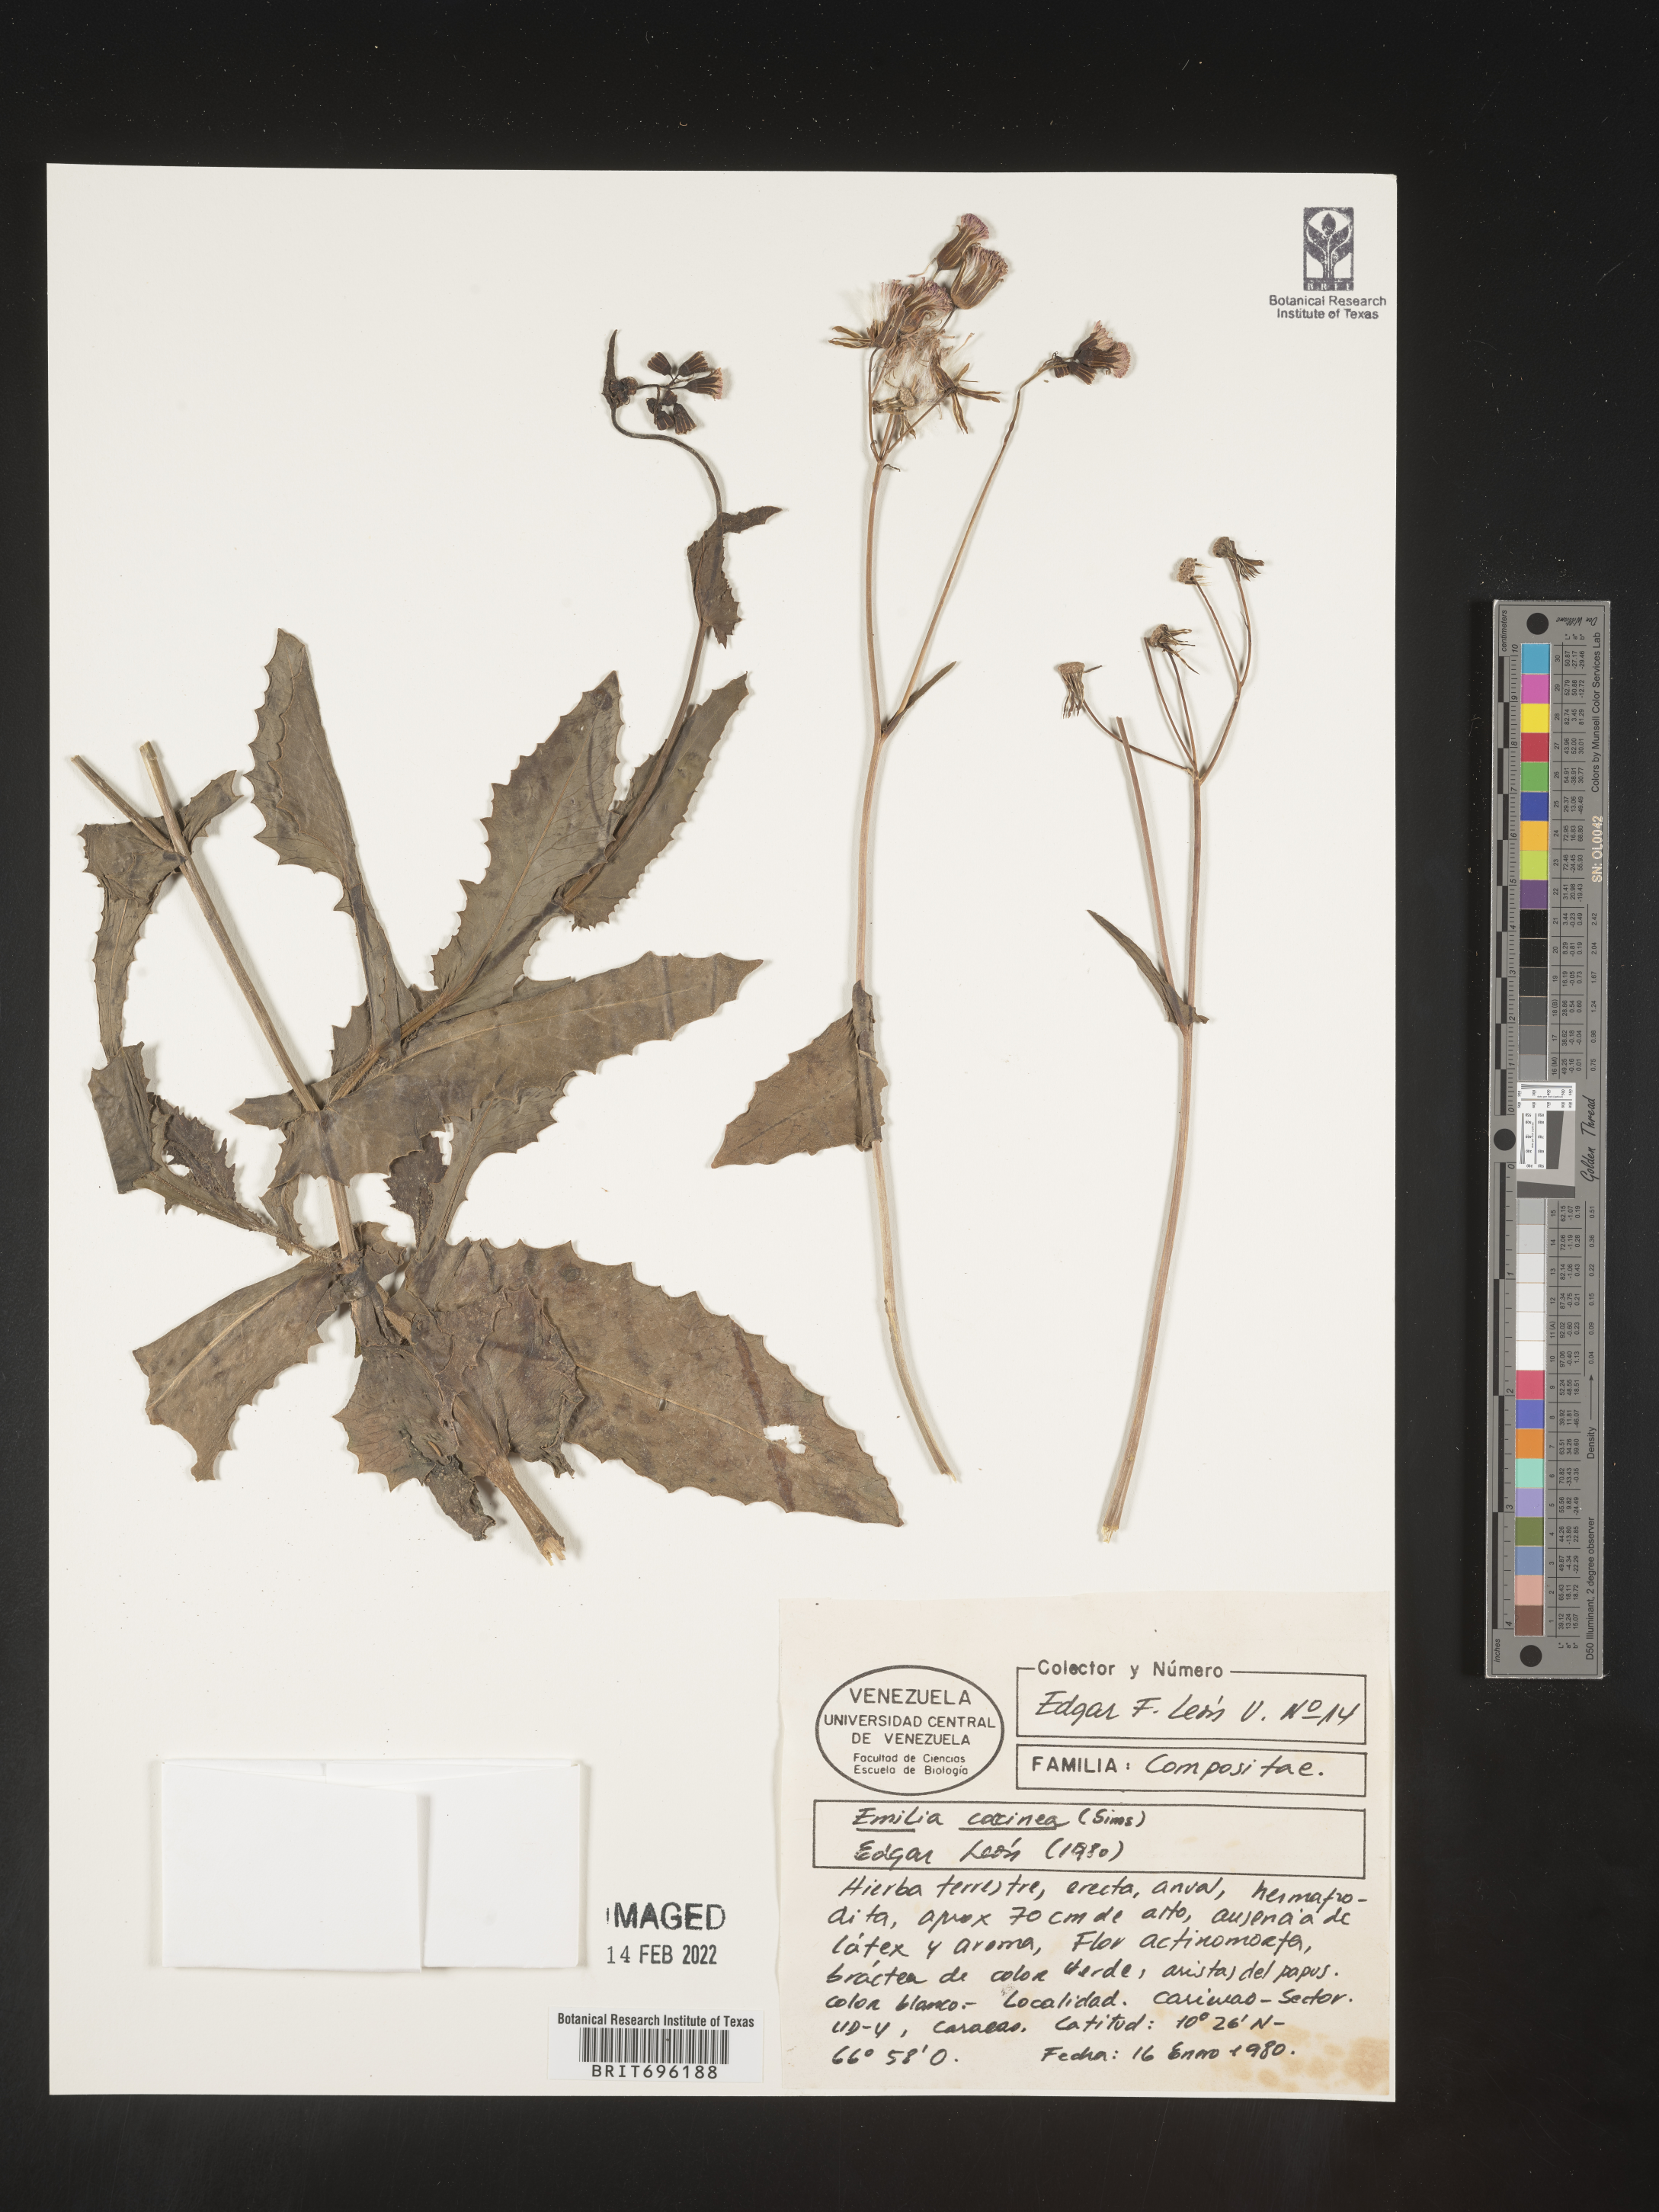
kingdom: Plantae
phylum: Tracheophyta
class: Magnoliopsida
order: Asterales
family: Asteraceae
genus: Emilia
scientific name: Emilia
